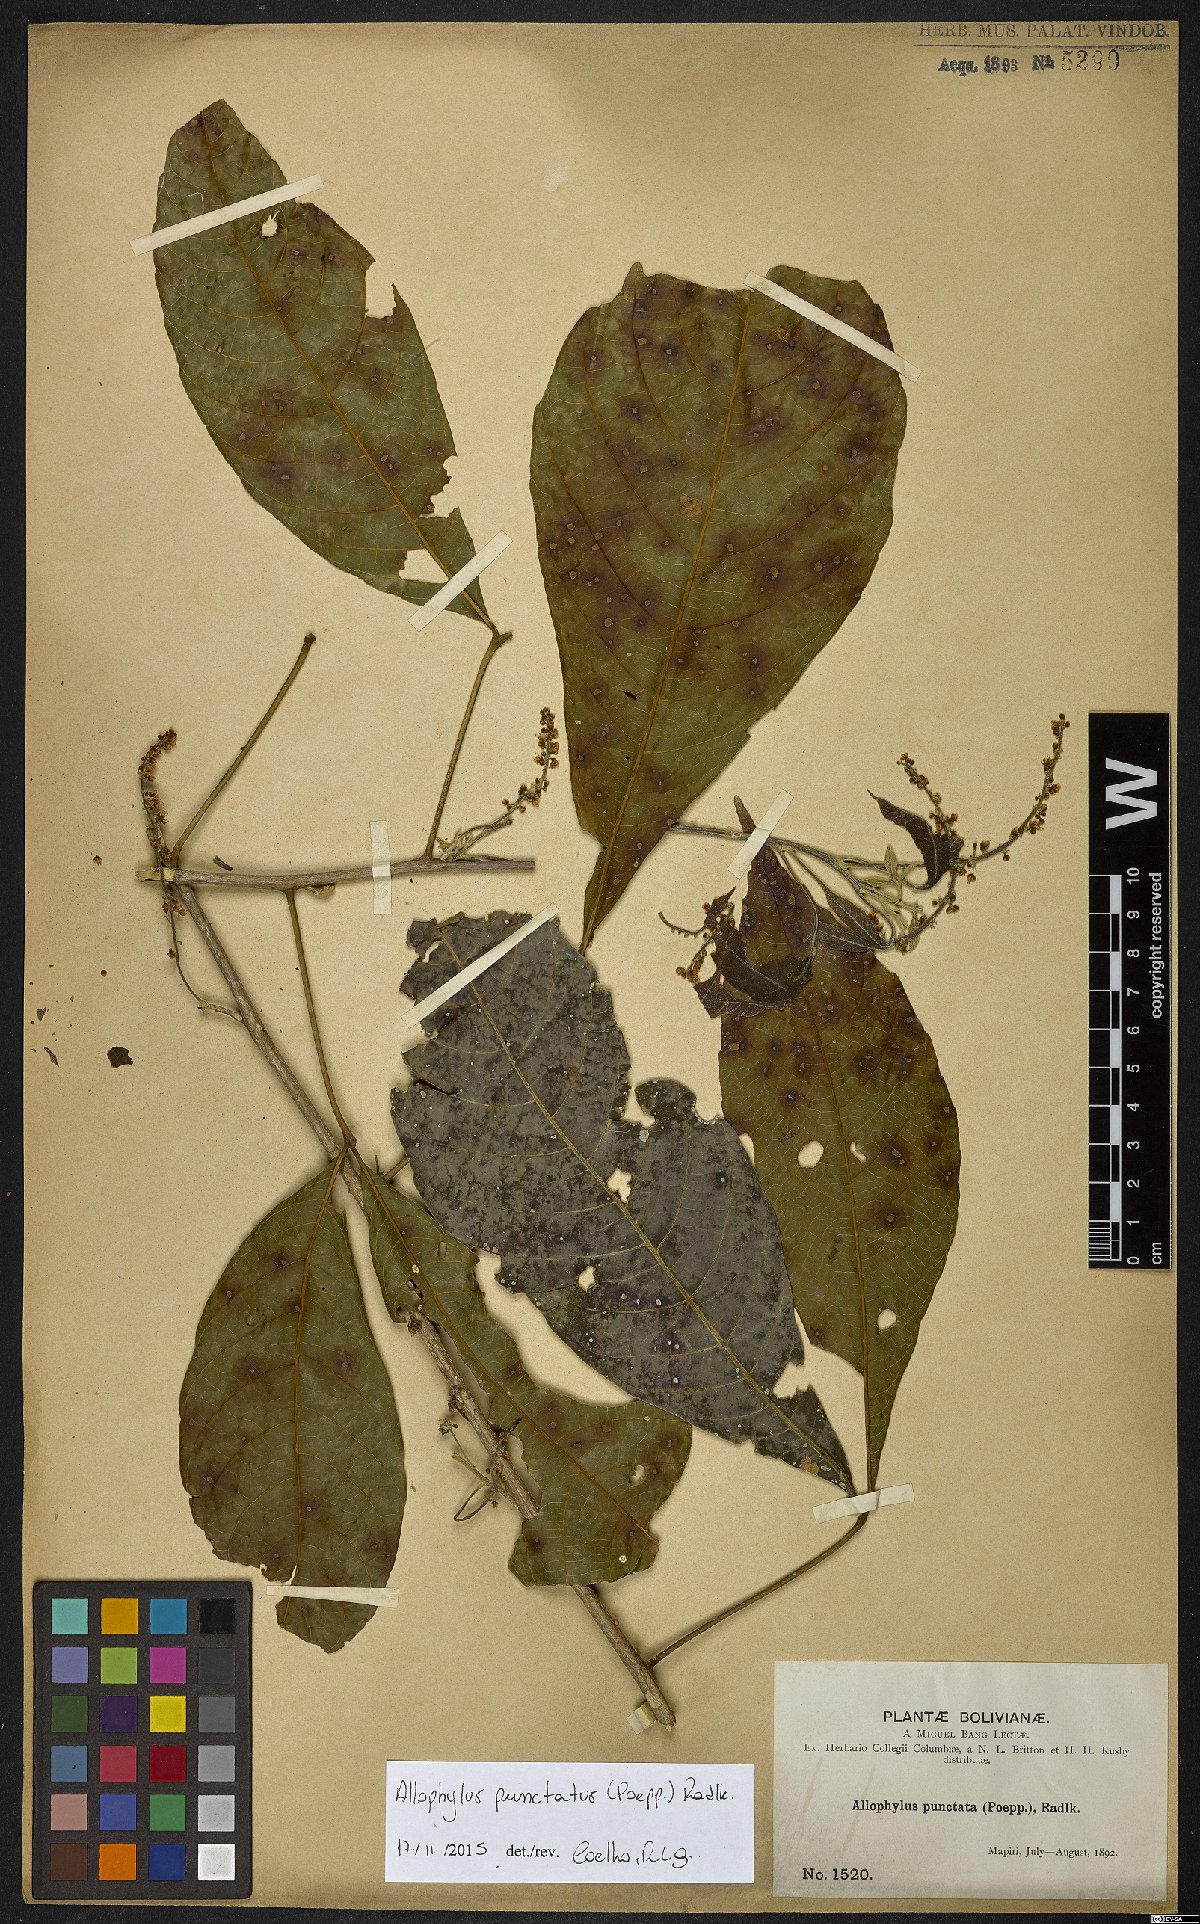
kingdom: Plantae
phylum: Tracheophyta
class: Magnoliopsida
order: Sapindales
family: Sapindaceae
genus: Allophylus
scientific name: Allophylus punctatus
